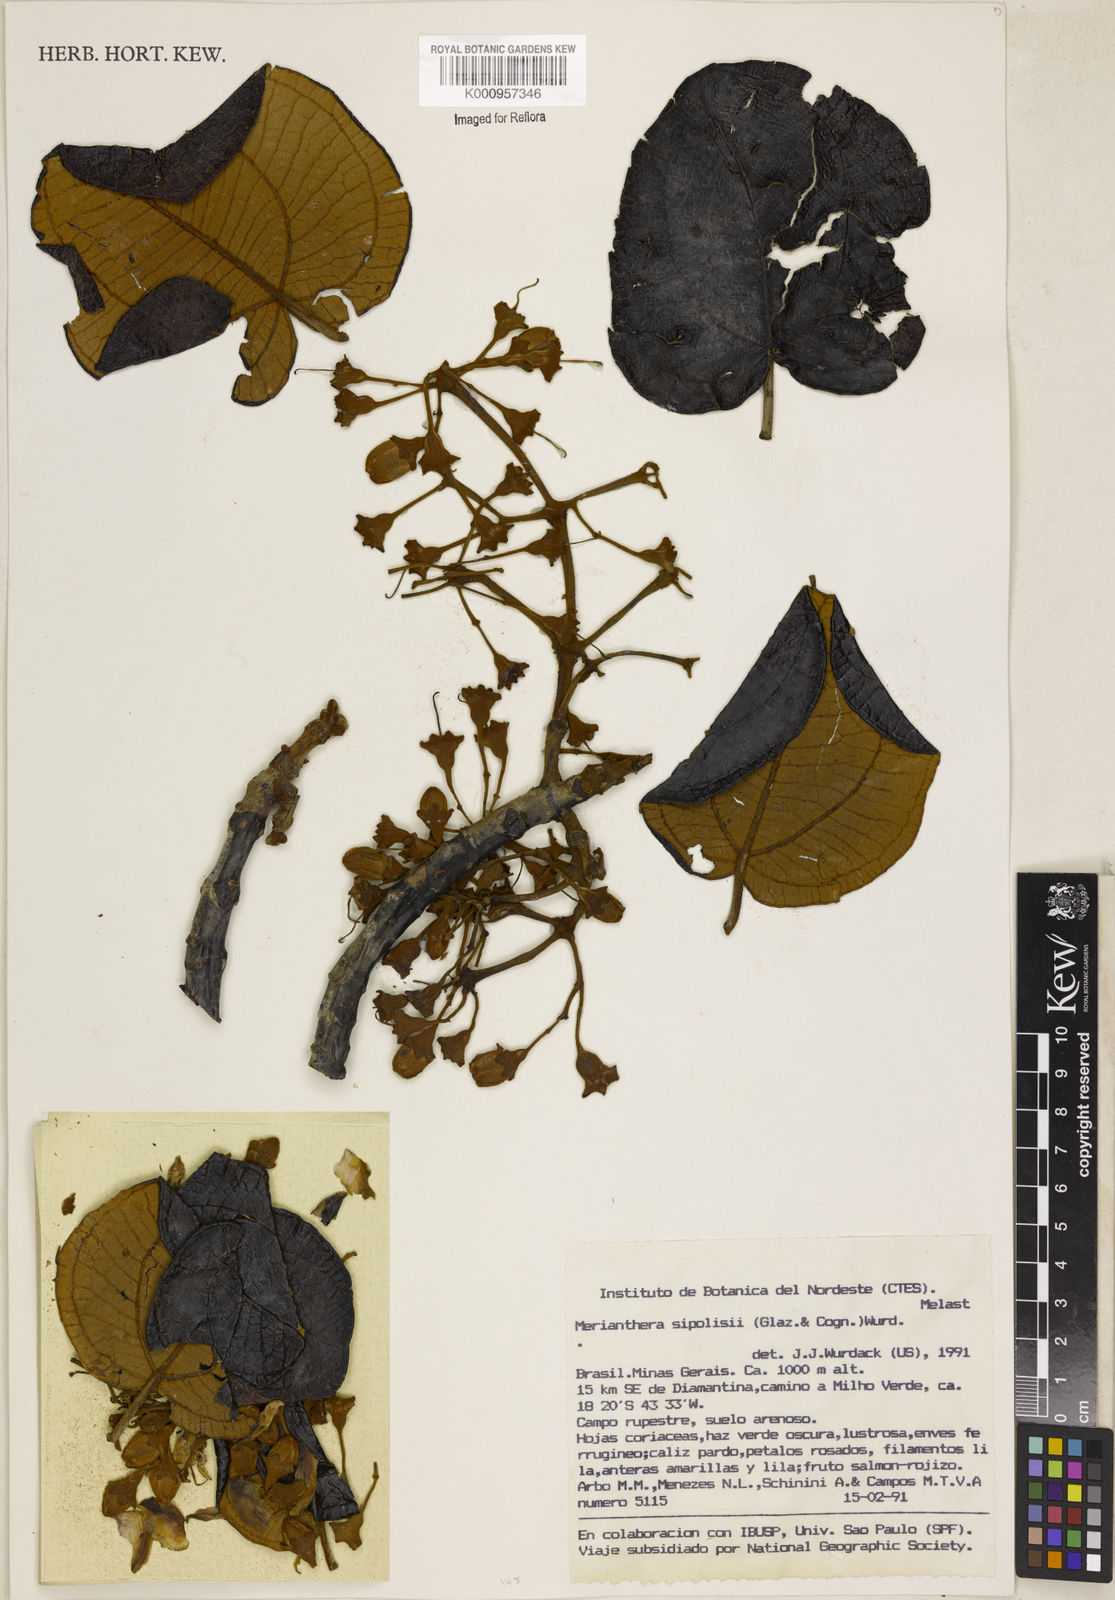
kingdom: Plantae
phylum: Tracheophyta
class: Magnoliopsida
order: Myrtales
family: Melastomataceae
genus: Merianthera
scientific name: Merianthera sipolisii
